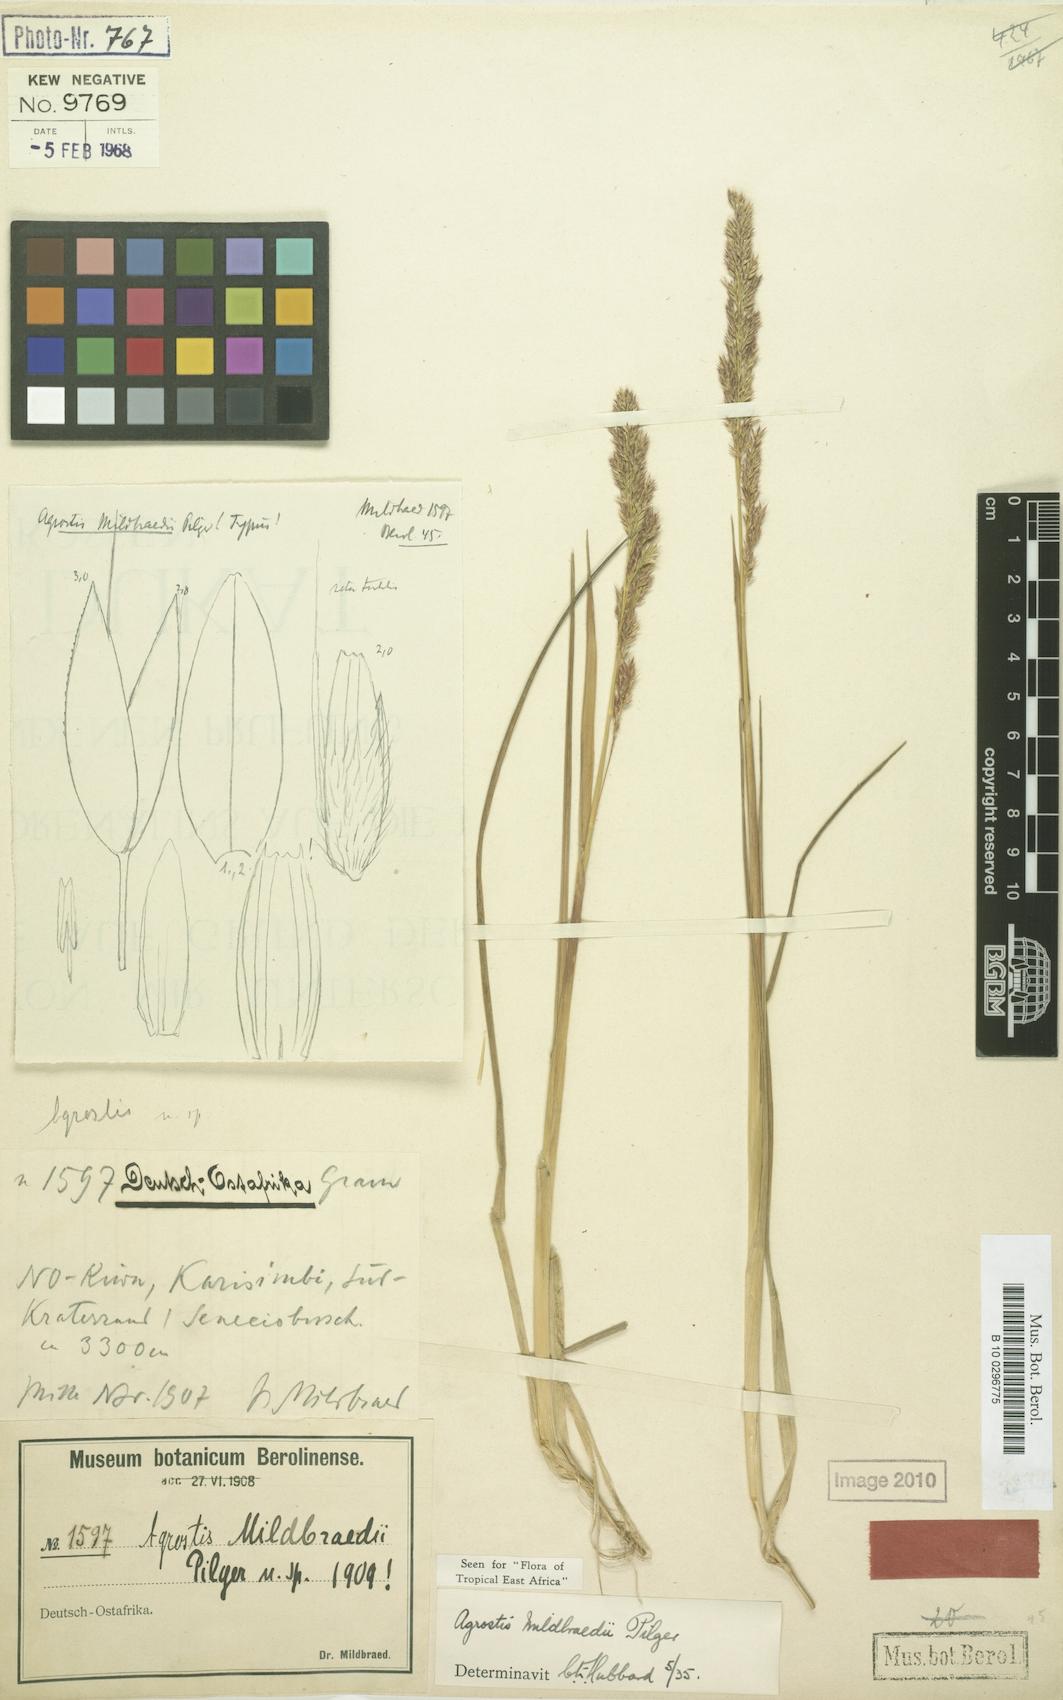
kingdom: Plantae
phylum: Tracheophyta
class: Liliopsida
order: Poales
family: Poaceae
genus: Agrostis
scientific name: Agrostis quinqueseta
